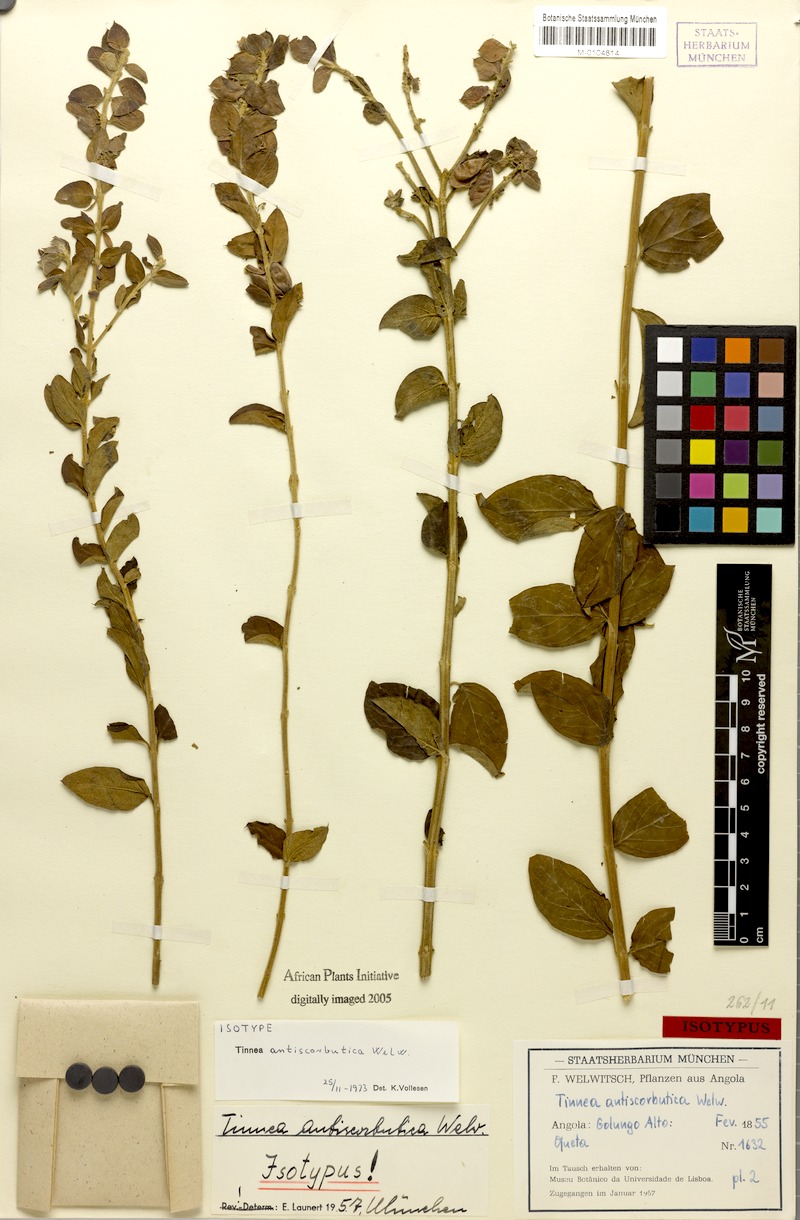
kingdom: Plantae
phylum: Tracheophyta
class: Magnoliopsida
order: Lamiales
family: Lamiaceae
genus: Tinnea
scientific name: Tinnea antiscorbutica
